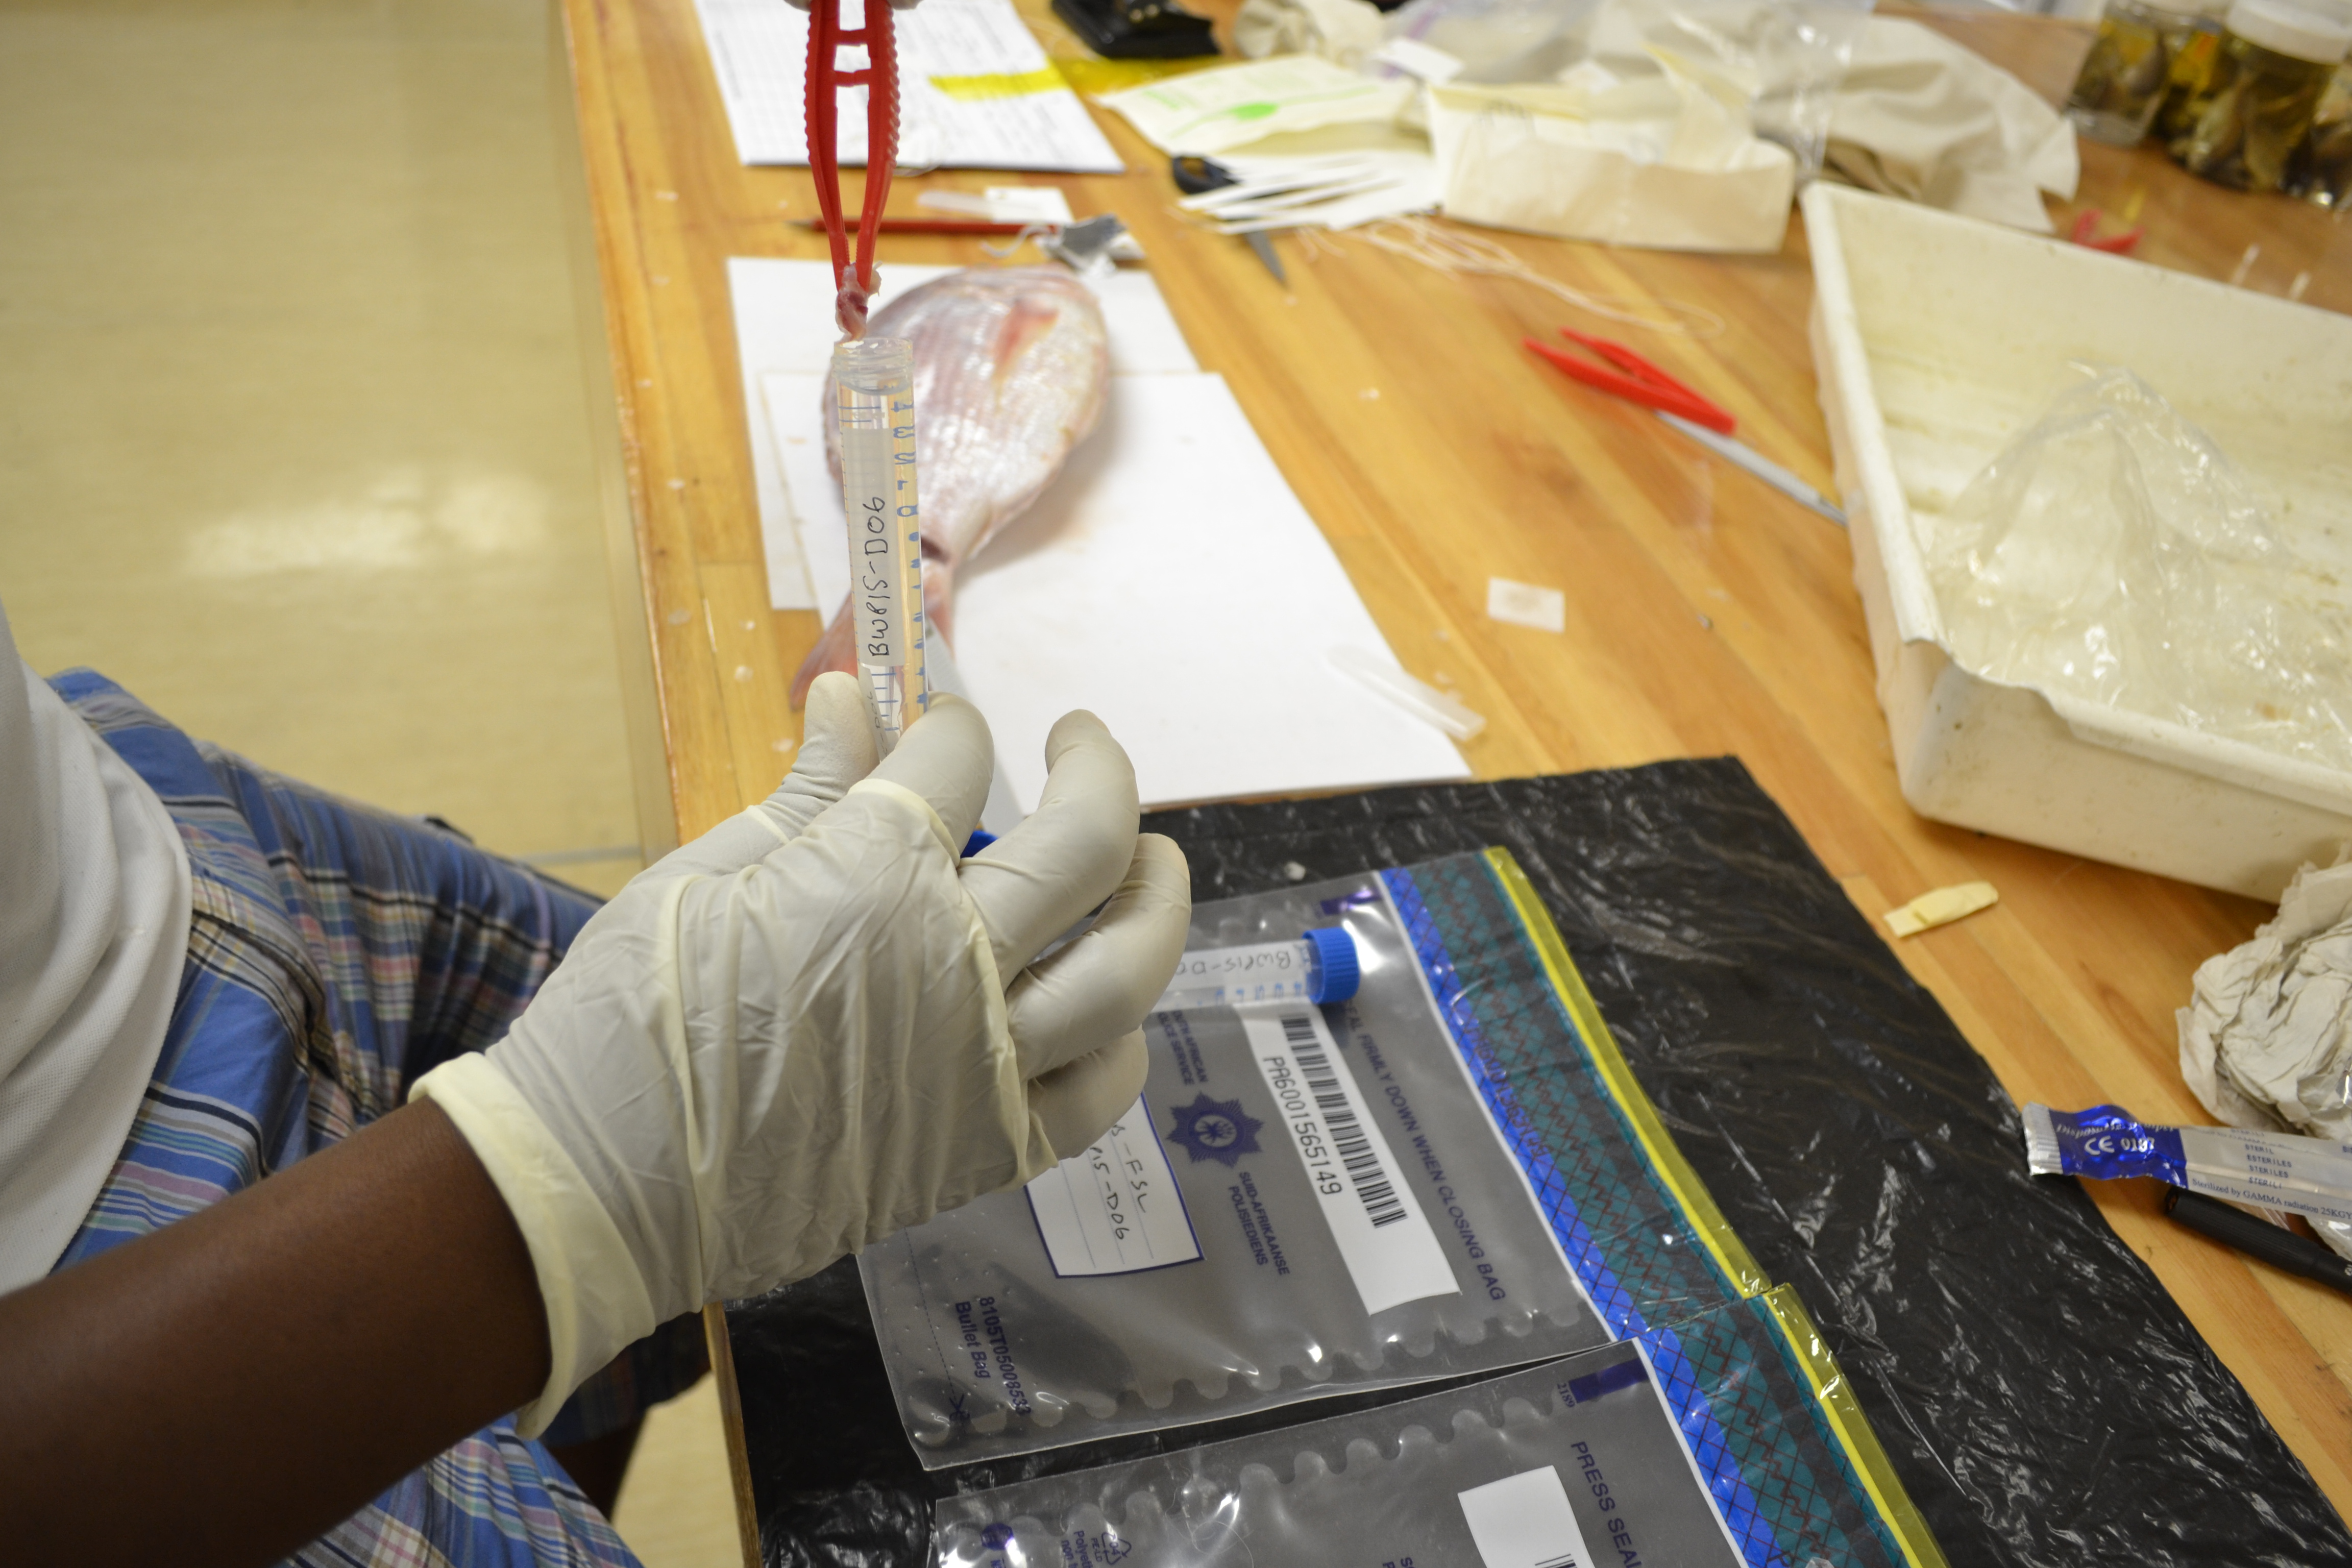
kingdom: Animalia
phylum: Chordata
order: Perciformes
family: Sparidae
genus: Cheimerius
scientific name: Cheimerius nufar
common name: Soldier
